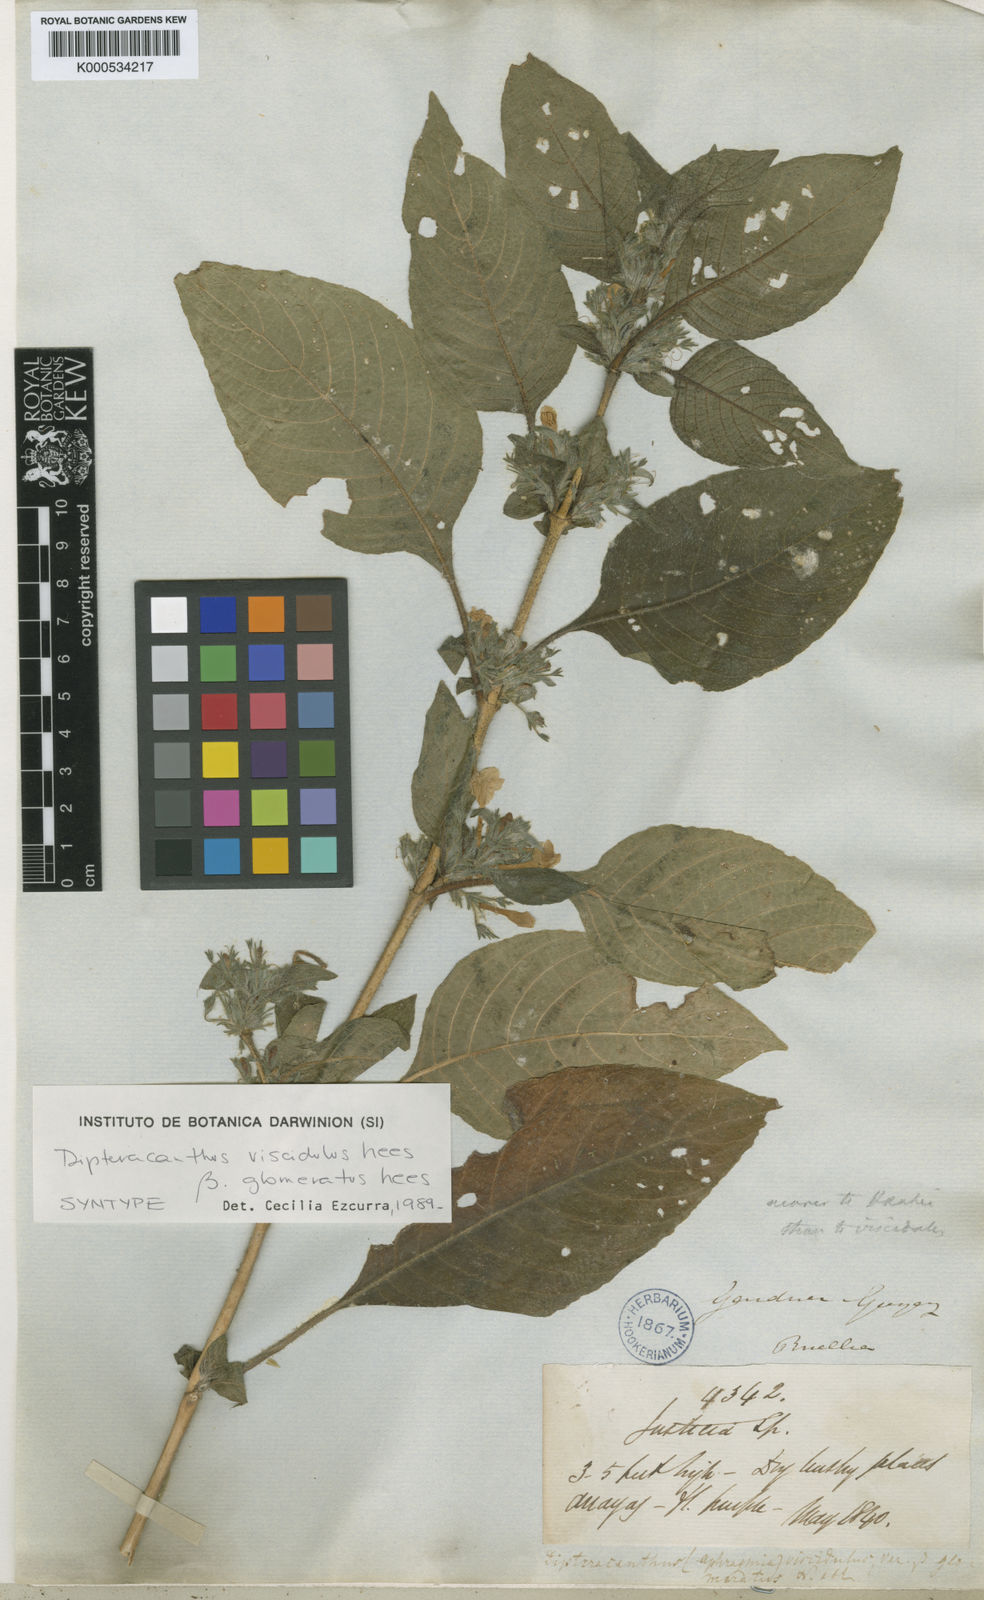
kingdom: Plantae
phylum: Tracheophyta
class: Magnoliopsida
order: Lamiales
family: Acanthaceae
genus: Ruellia
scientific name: Ruellia
